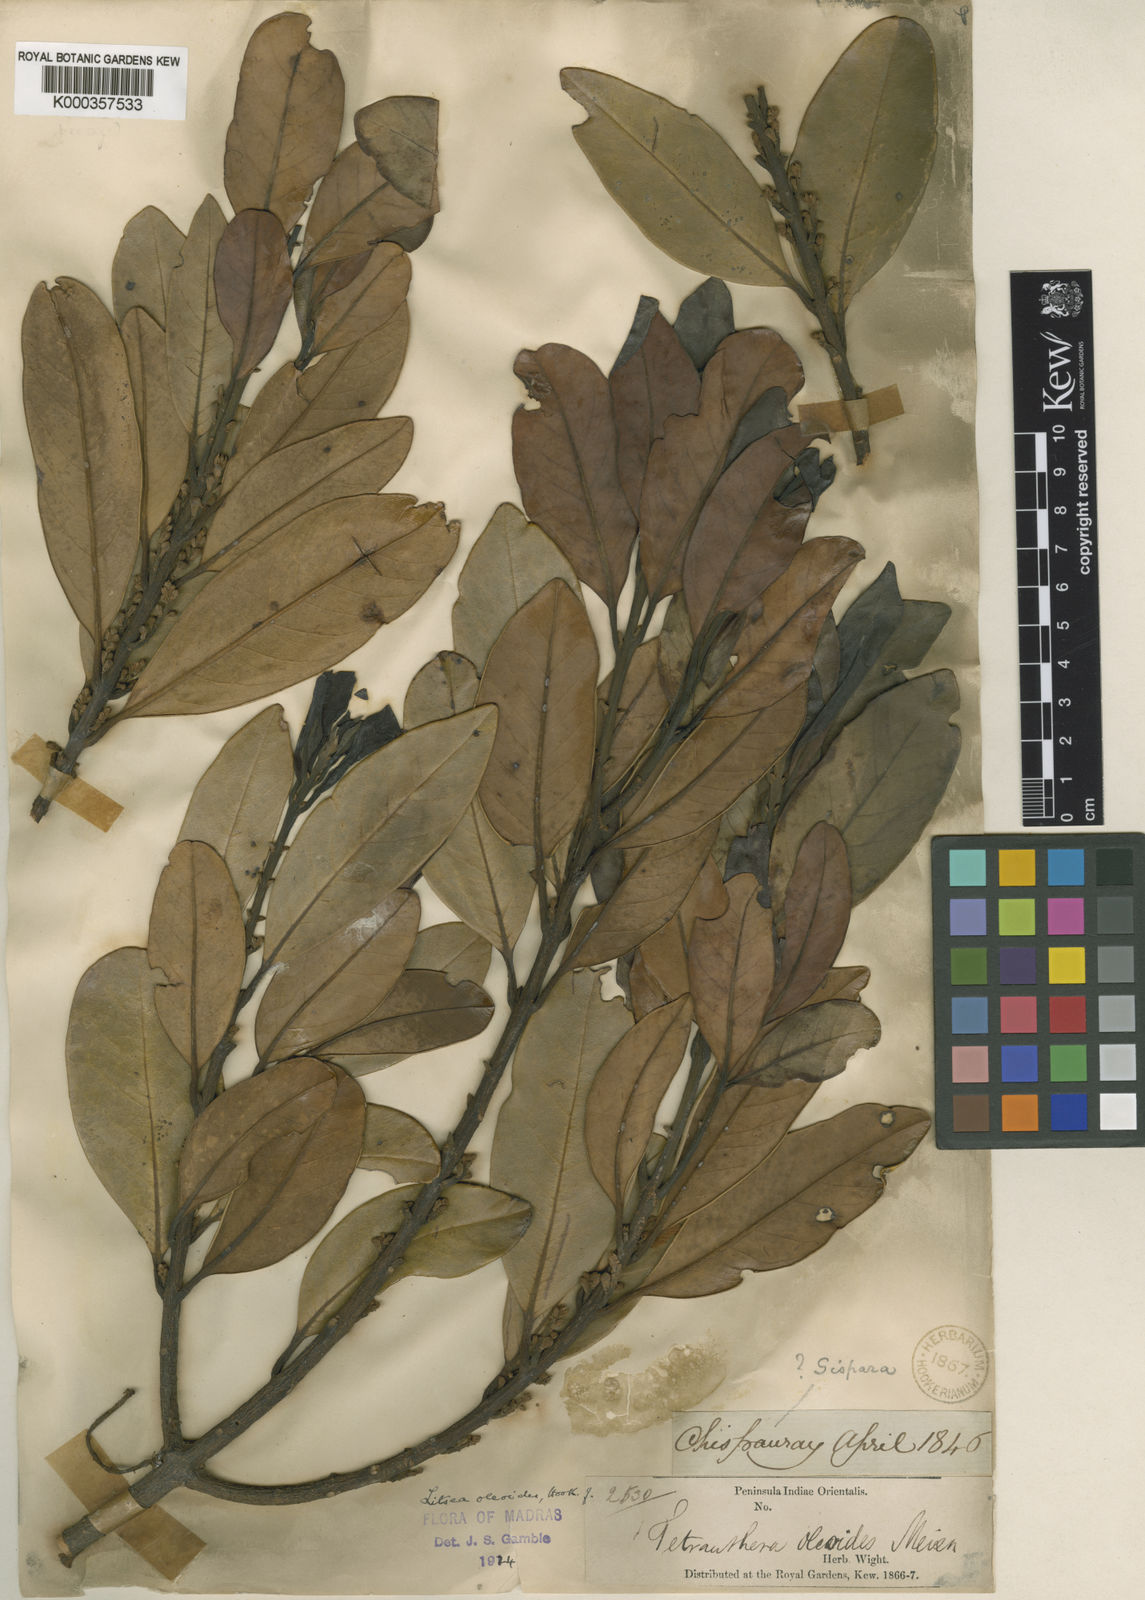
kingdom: Plantae
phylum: Tracheophyta
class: Magnoliopsida
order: Laurales
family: Lauraceae
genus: Litsea
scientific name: Litsea oleoides
